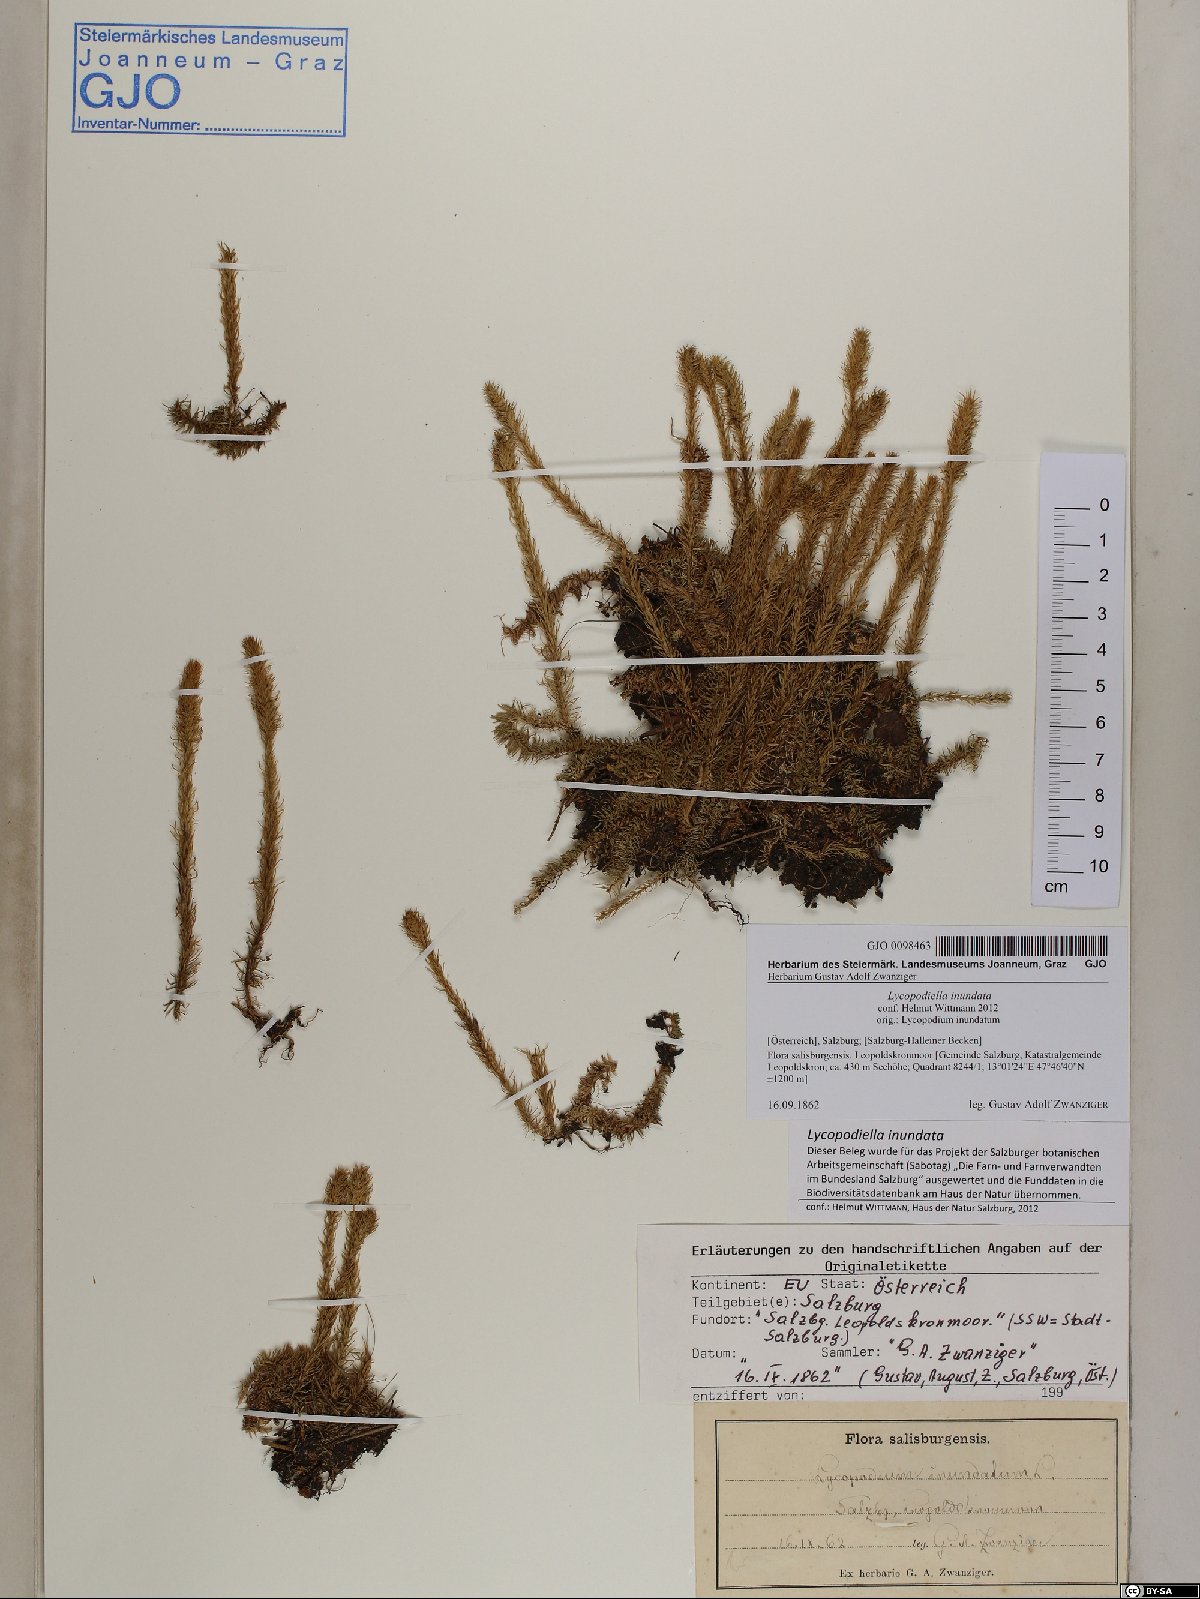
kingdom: Plantae
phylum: Tracheophyta
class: Lycopodiopsida
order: Lycopodiales
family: Lycopodiaceae
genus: Lycopodiella
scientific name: Lycopodiella inundata
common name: Marsh clubmoss
